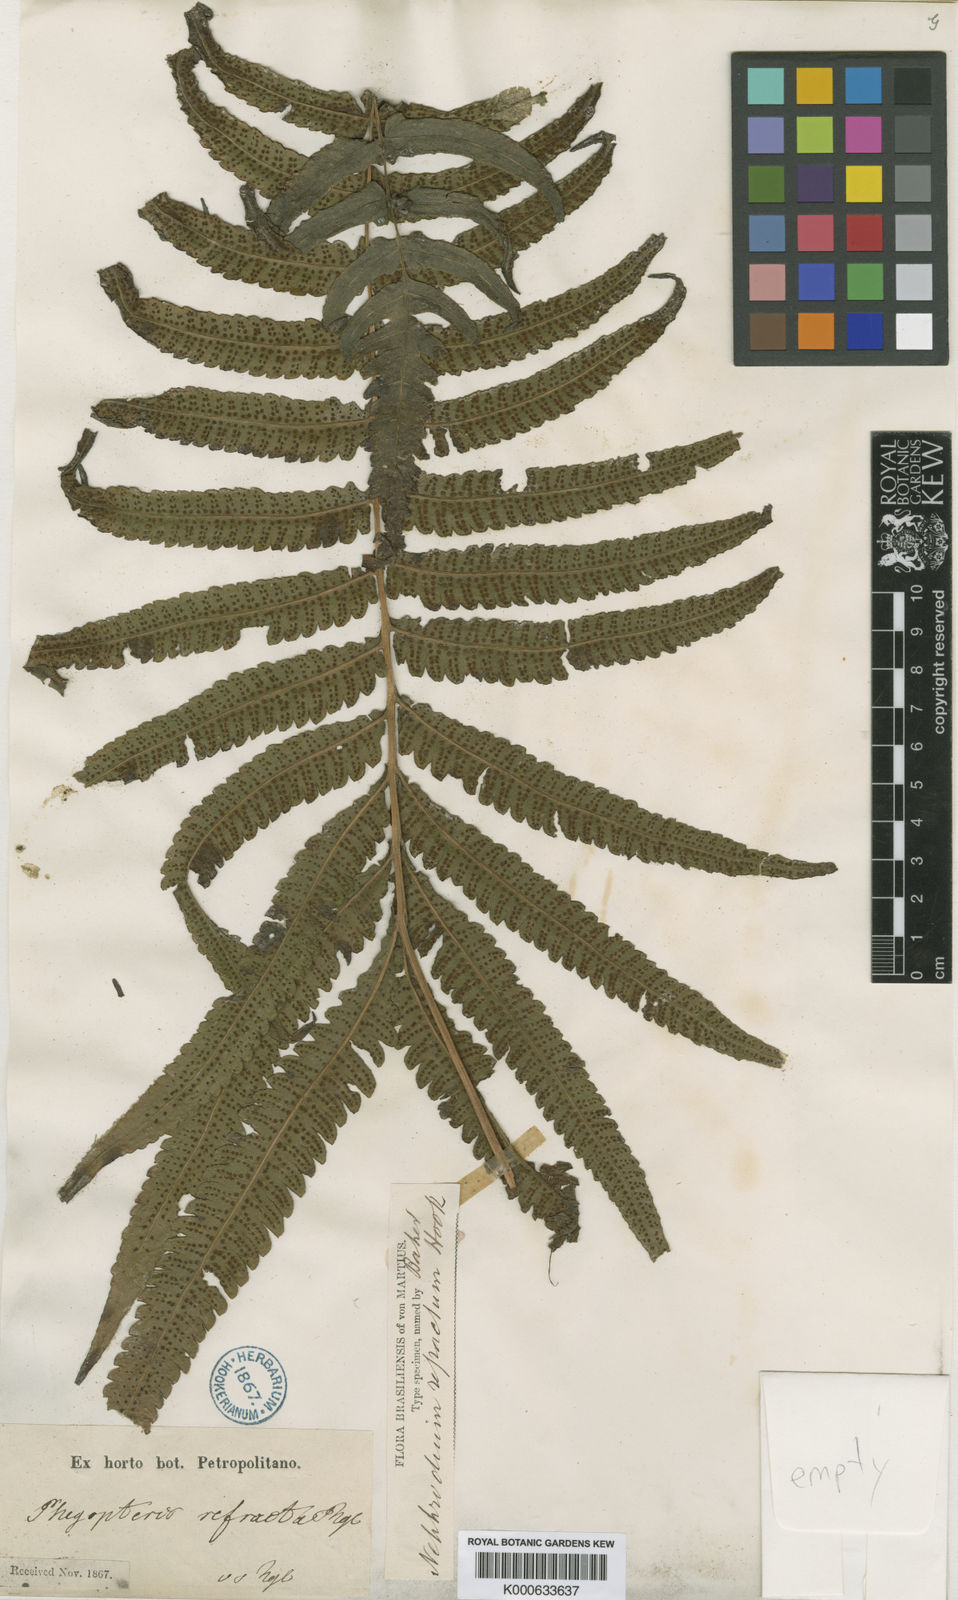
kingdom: Plantae
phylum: Tracheophyta
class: Polypodiopsida
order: Polypodiales
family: Thelypteridaceae
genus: Goniopteris
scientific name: Goniopteris
